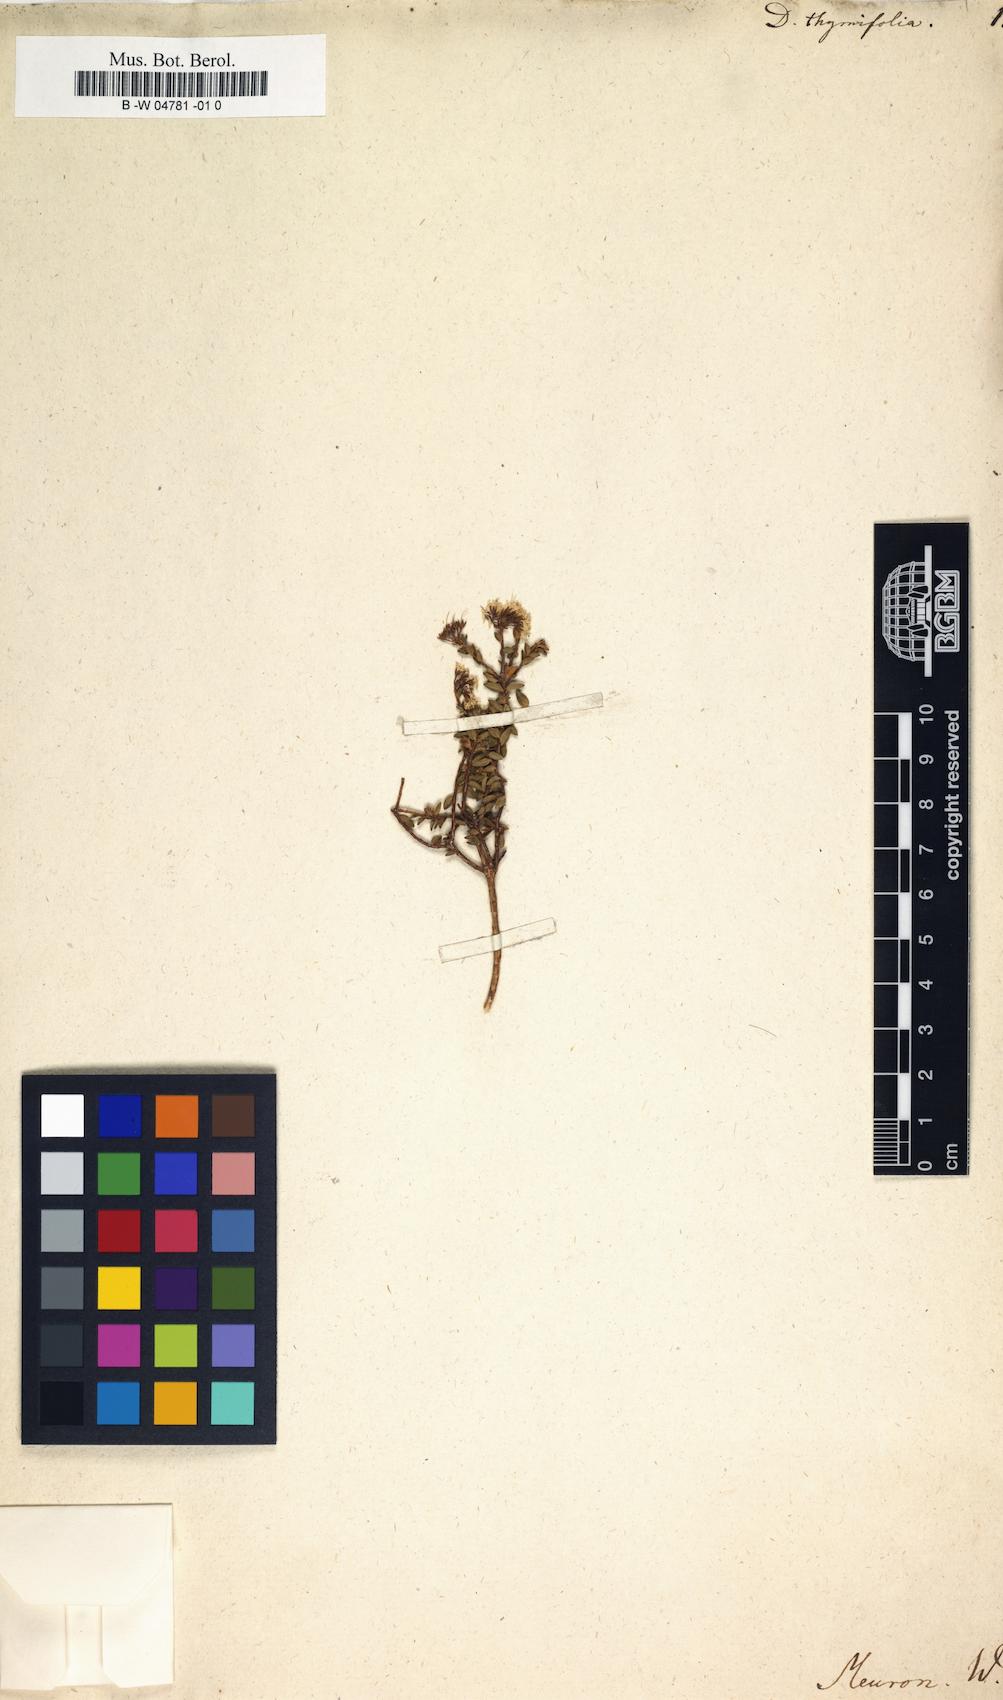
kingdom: Plantae
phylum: Tracheophyta
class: Magnoliopsida
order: Sapindales
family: Rutaceae
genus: Agathosma
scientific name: Agathosma ciliaris
